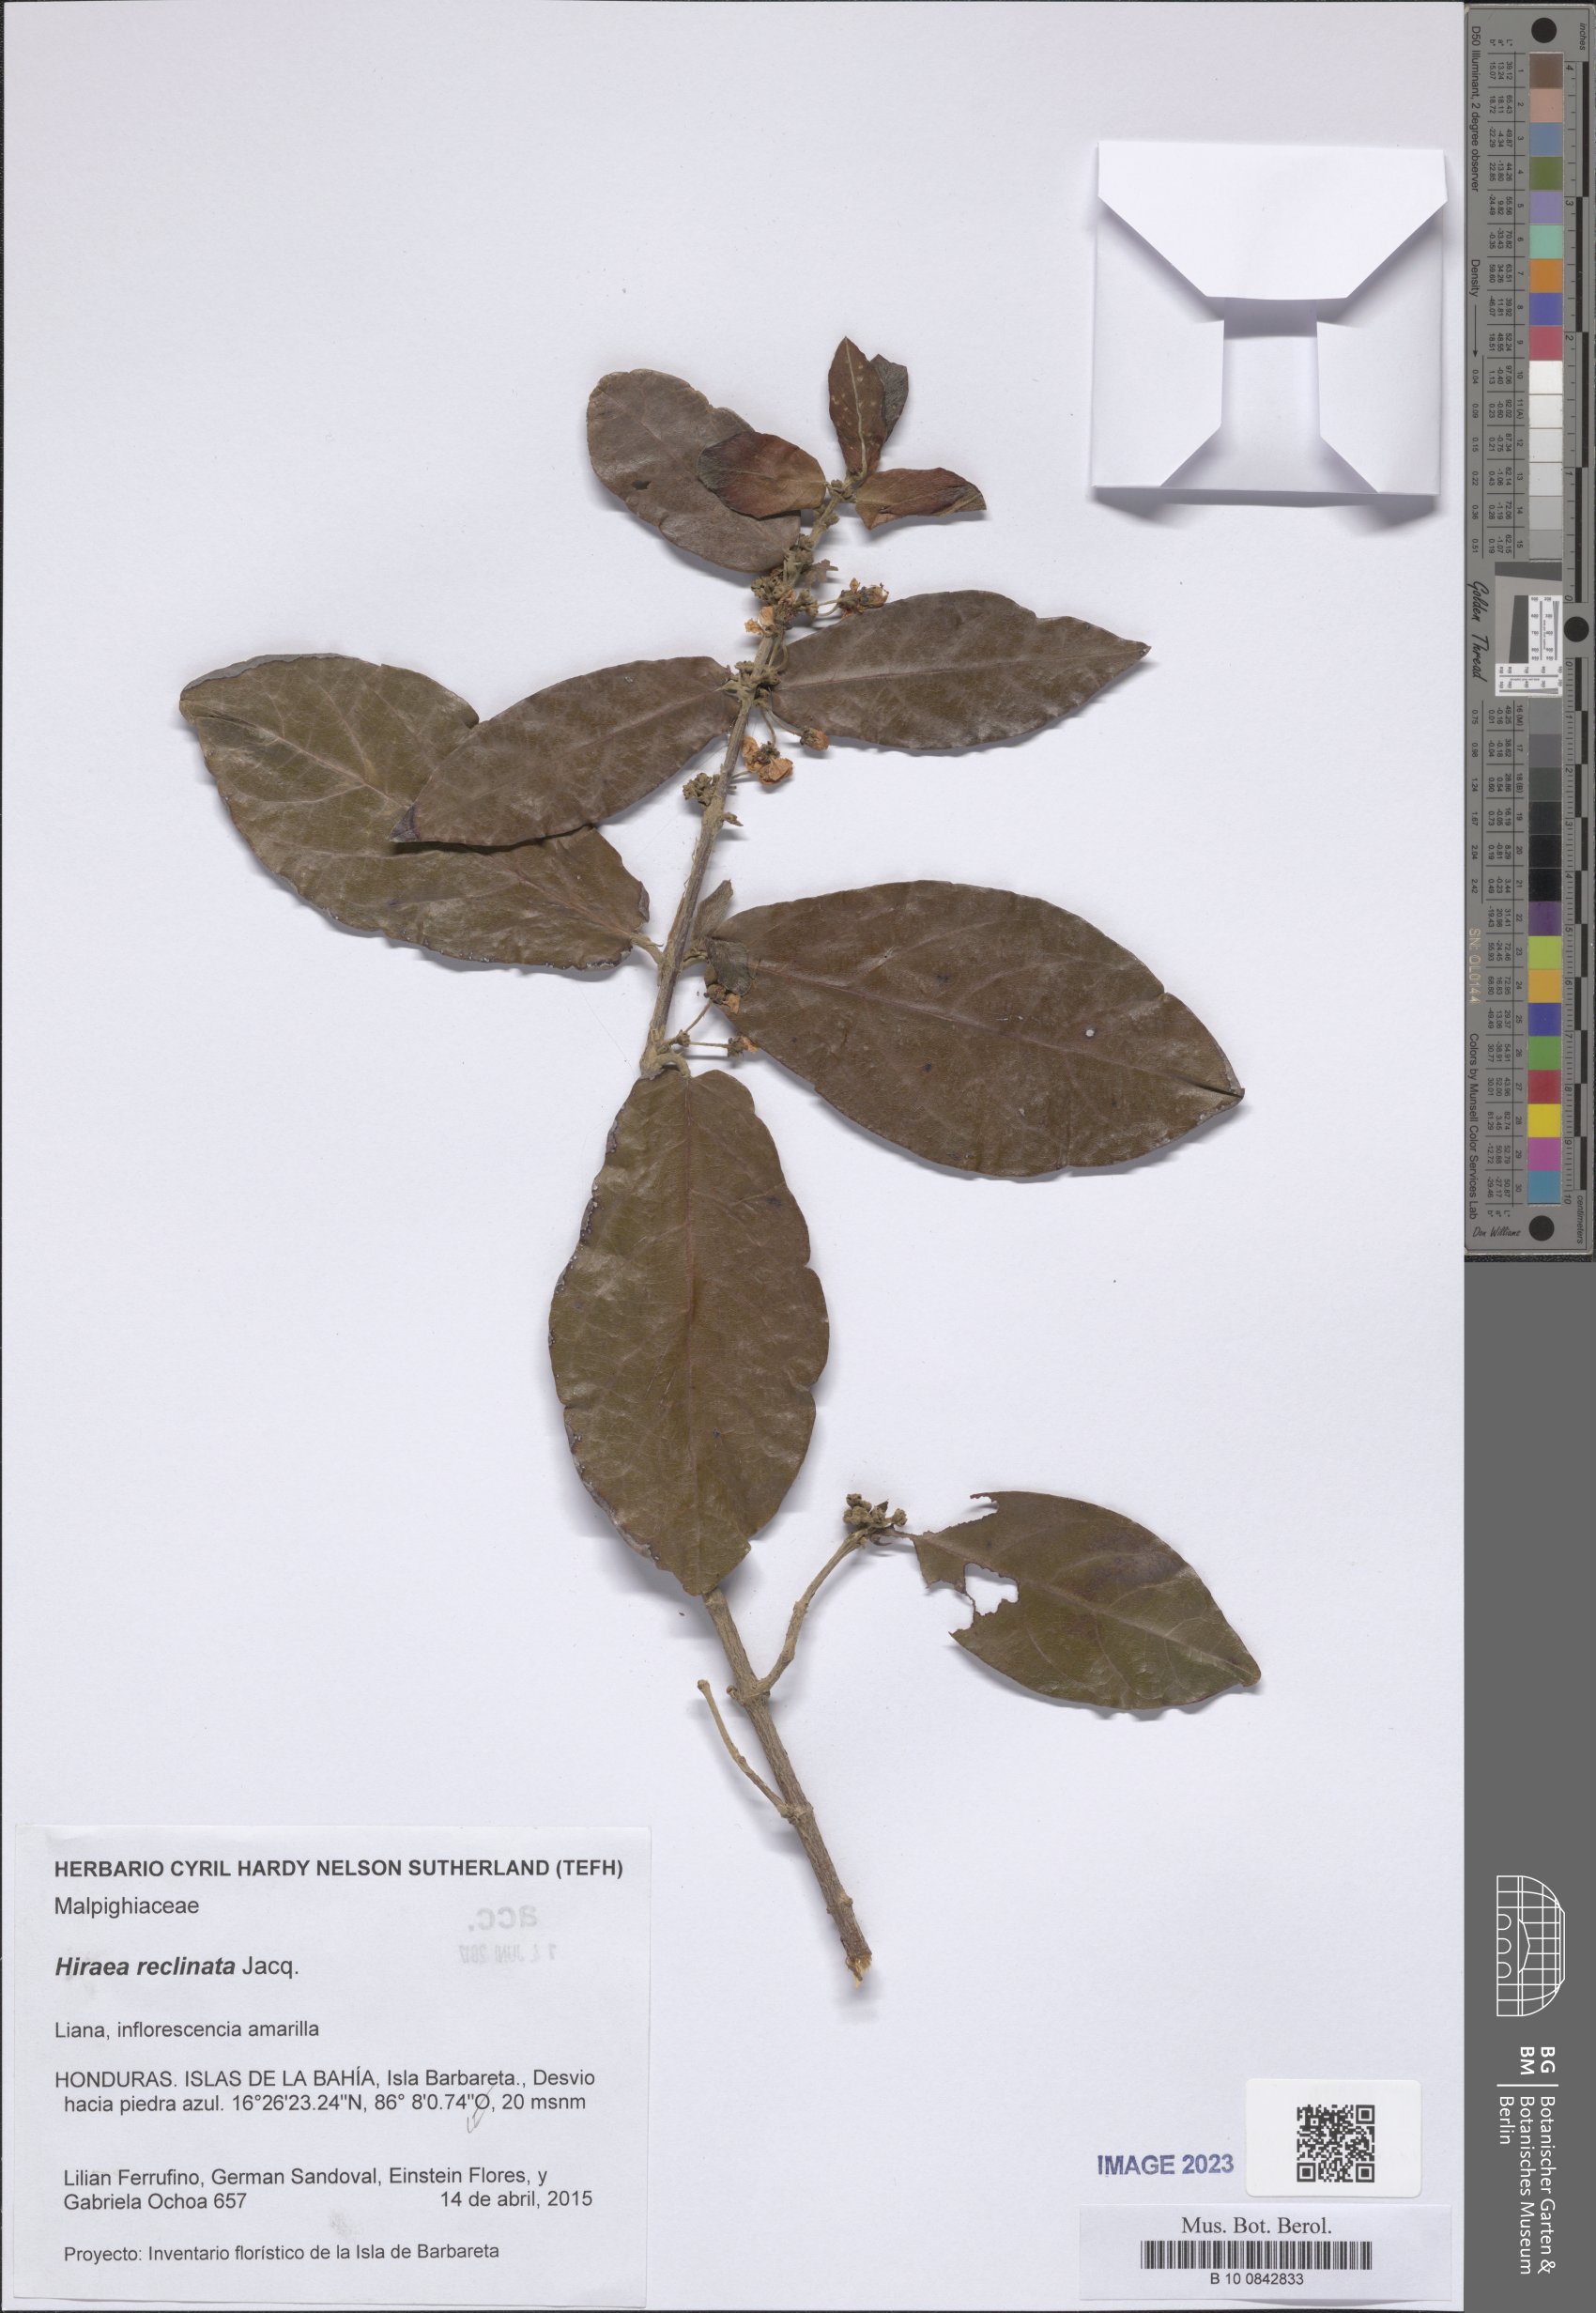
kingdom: Plantae
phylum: Tracheophyta
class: Magnoliopsida
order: Malpighiales
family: Malpighiaceae
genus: Hiraea
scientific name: Hiraea reclinata
